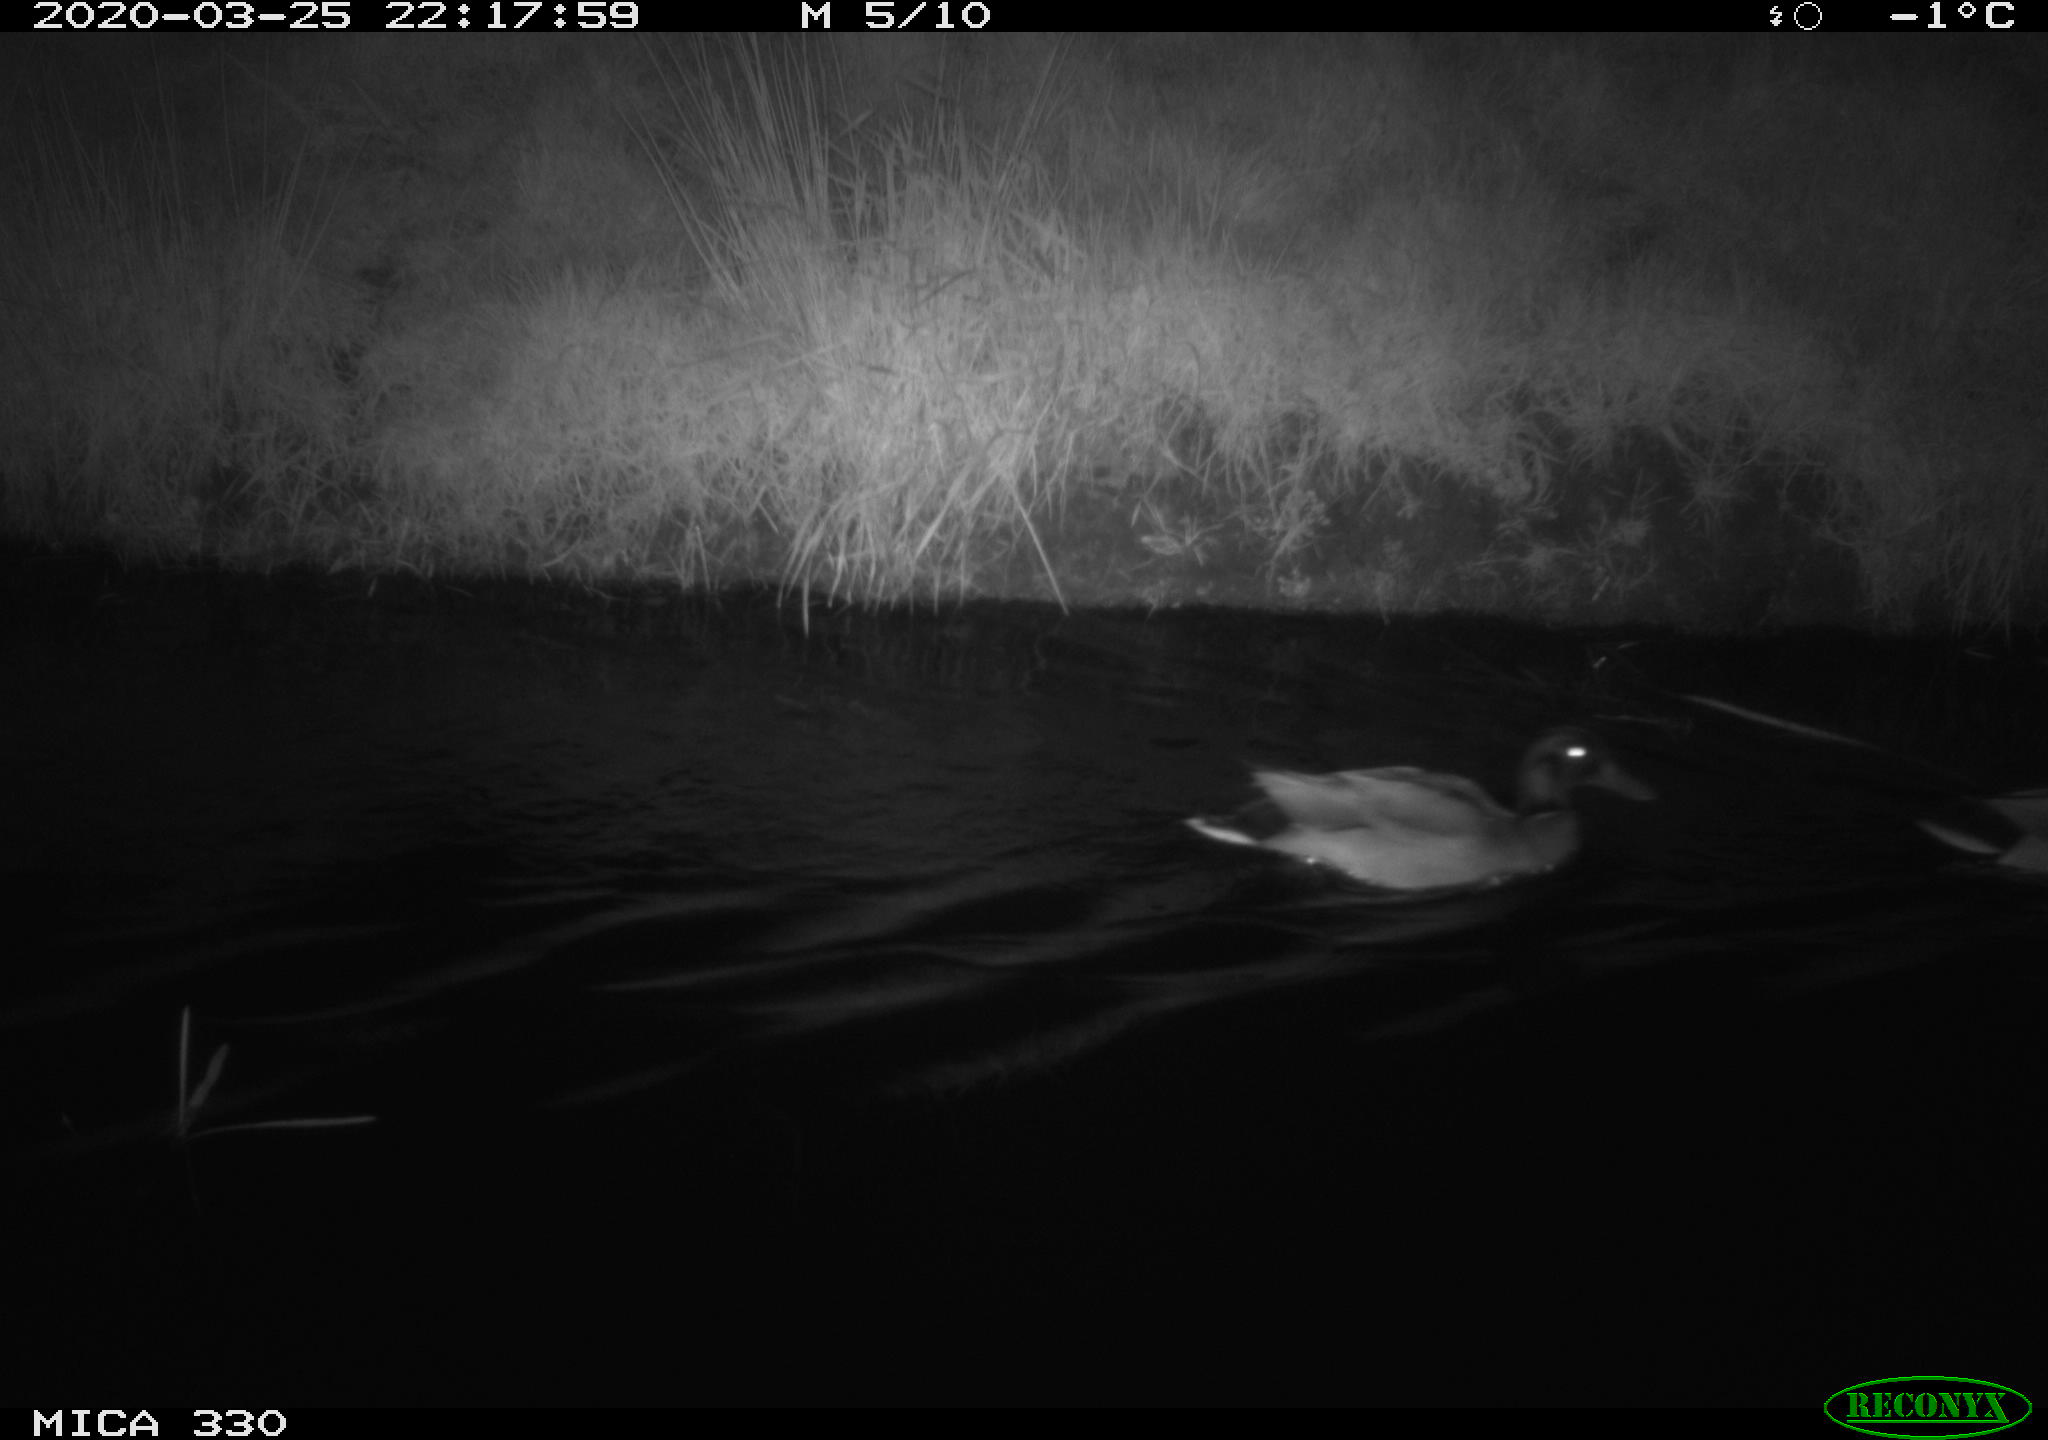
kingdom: Animalia
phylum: Chordata
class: Aves
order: Anseriformes
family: Anatidae
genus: Anas
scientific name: Anas platyrhynchos
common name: Mallard
